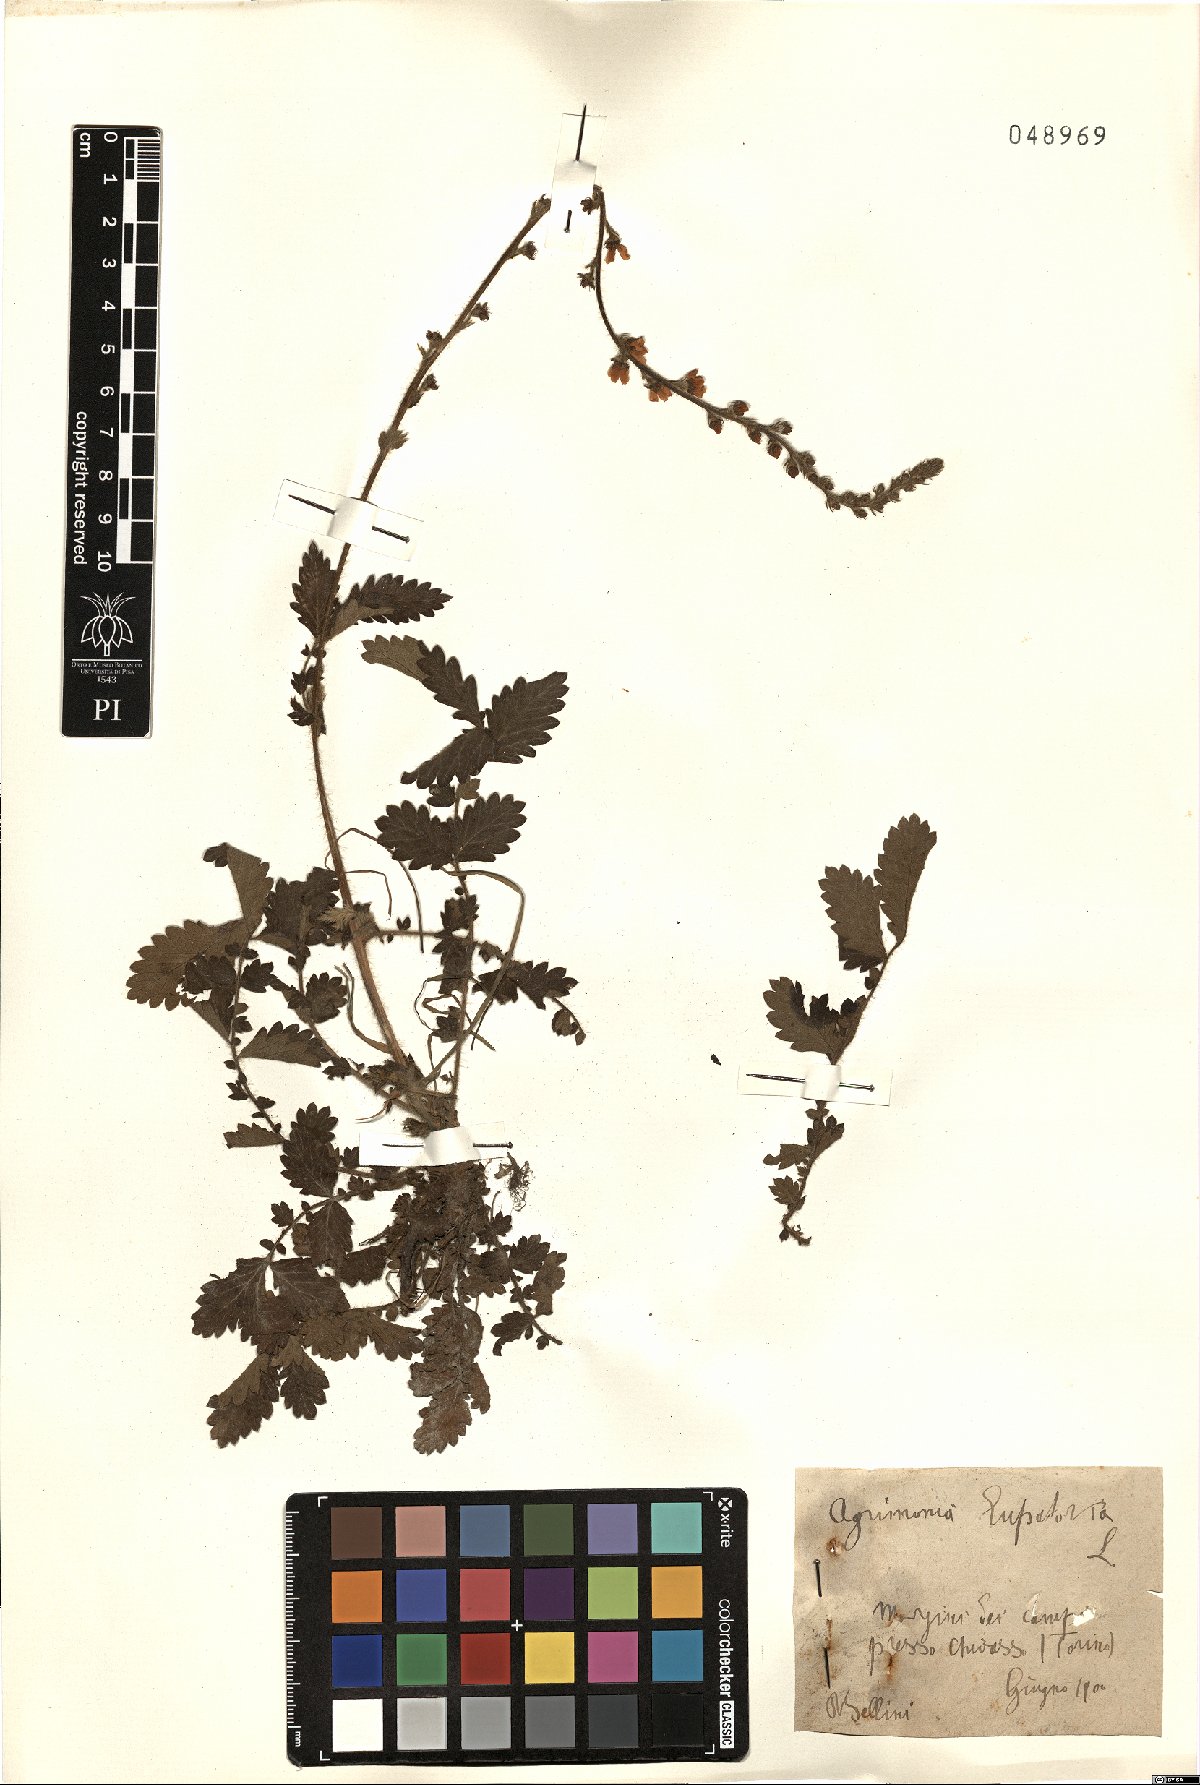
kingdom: Plantae
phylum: Tracheophyta
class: Magnoliopsida
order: Rosales
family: Rosaceae
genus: Agrimonia
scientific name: Agrimonia eupatoria
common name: Agrimony
